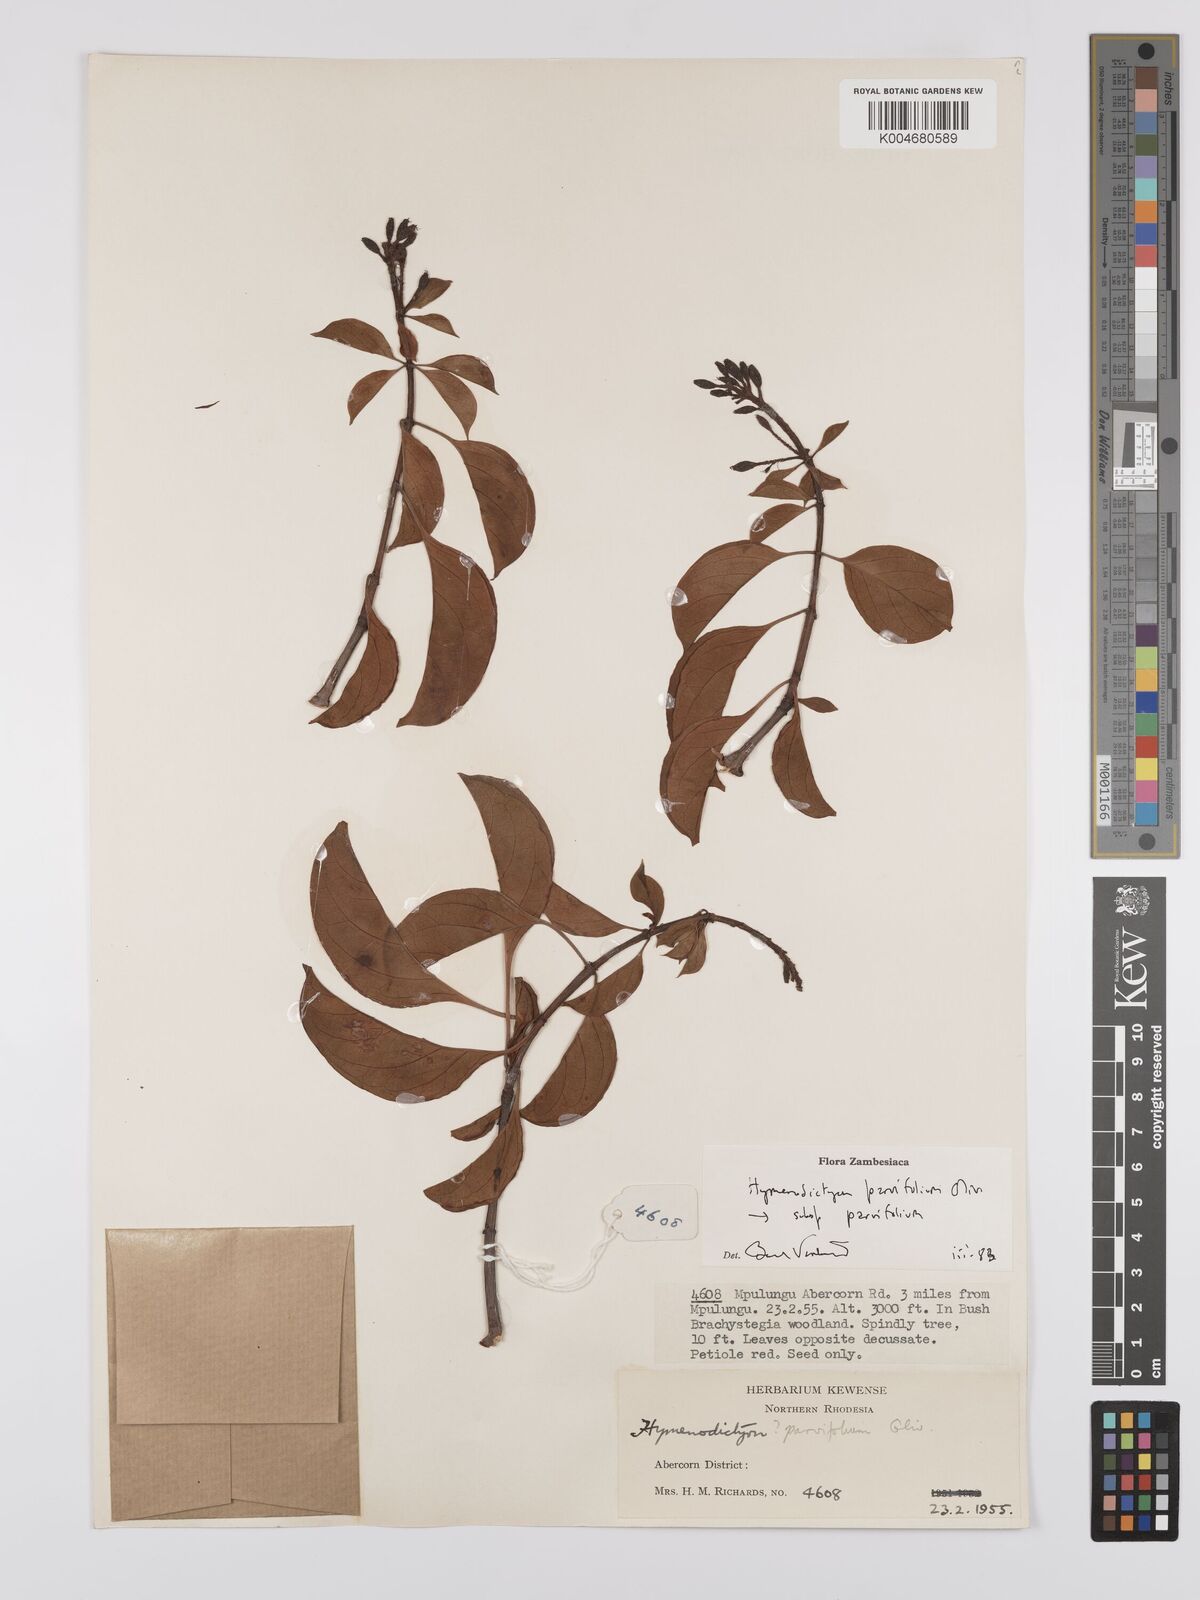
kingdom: Plantae
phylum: Tracheophyta
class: Magnoliopsida
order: Gentianales
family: Rubiaceae
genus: Hymenodictyon
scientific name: Hymenodictyon parvifolium
